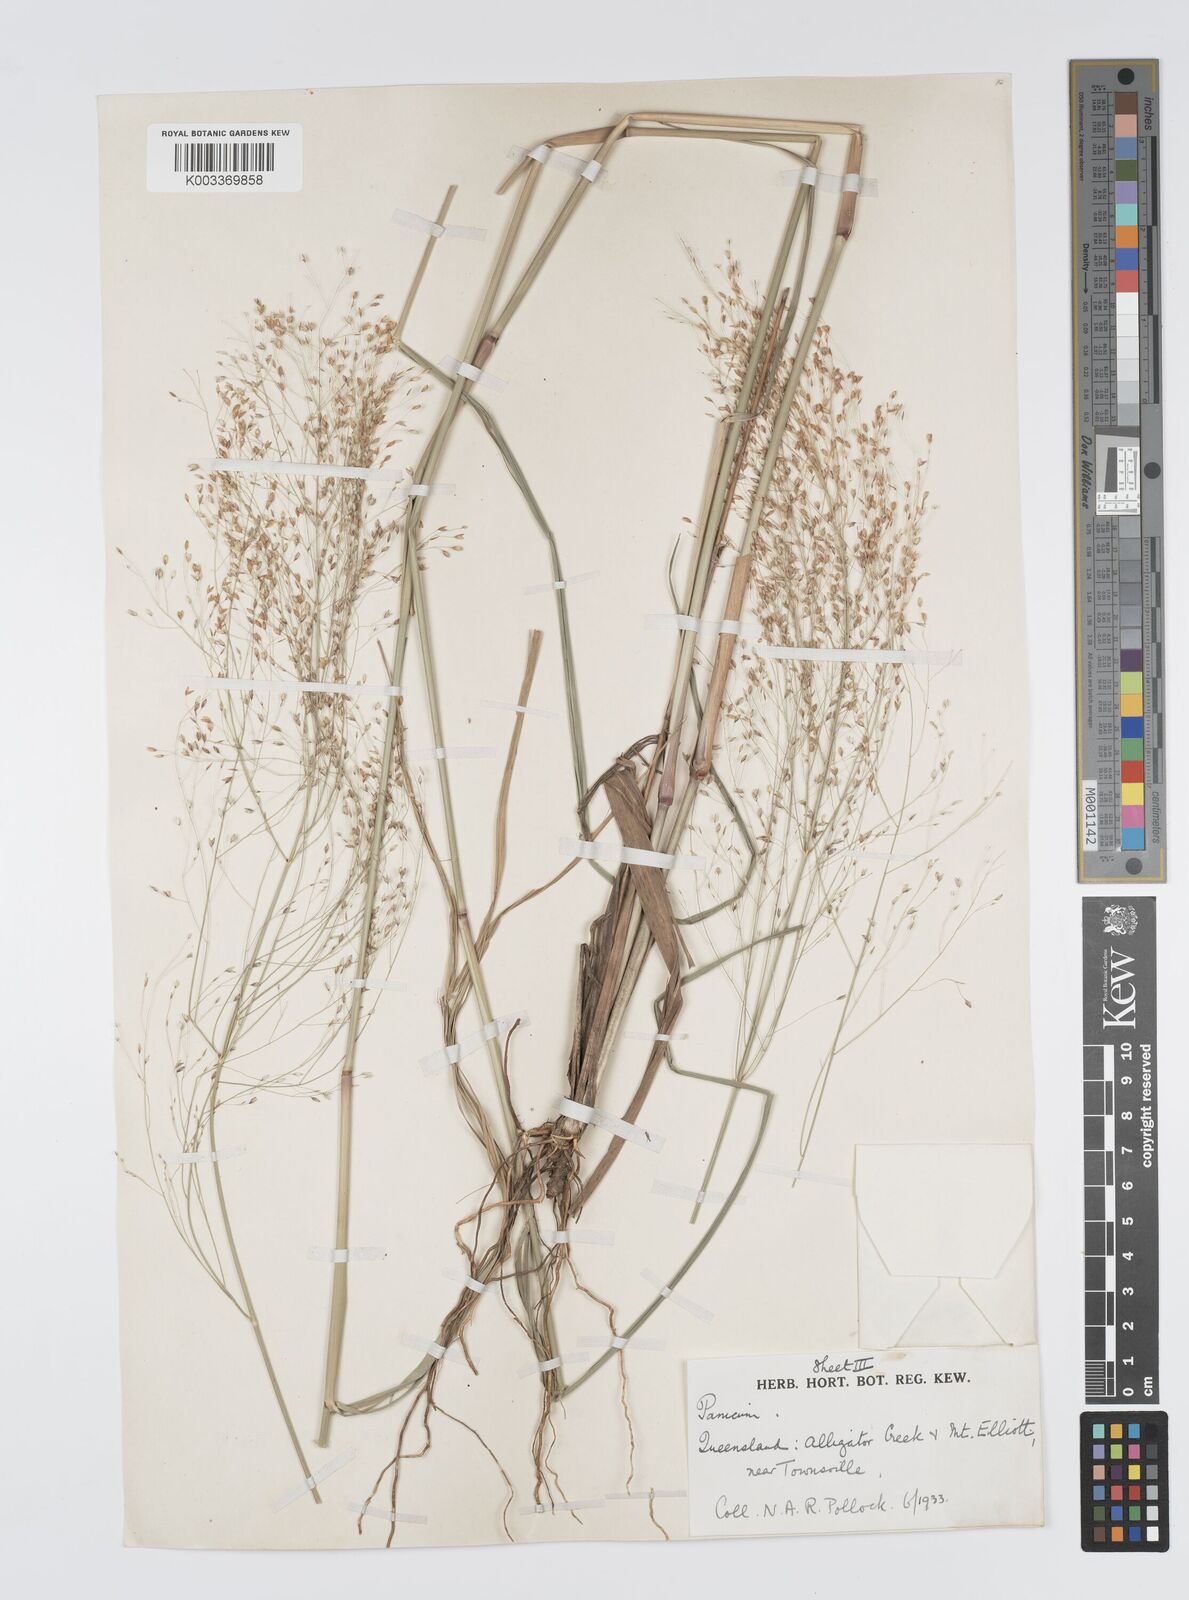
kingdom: Plantae
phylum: Tracheophyta
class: Liliopsida
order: Poales
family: Poaceae
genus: Panicum
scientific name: Panicum mitchellii
